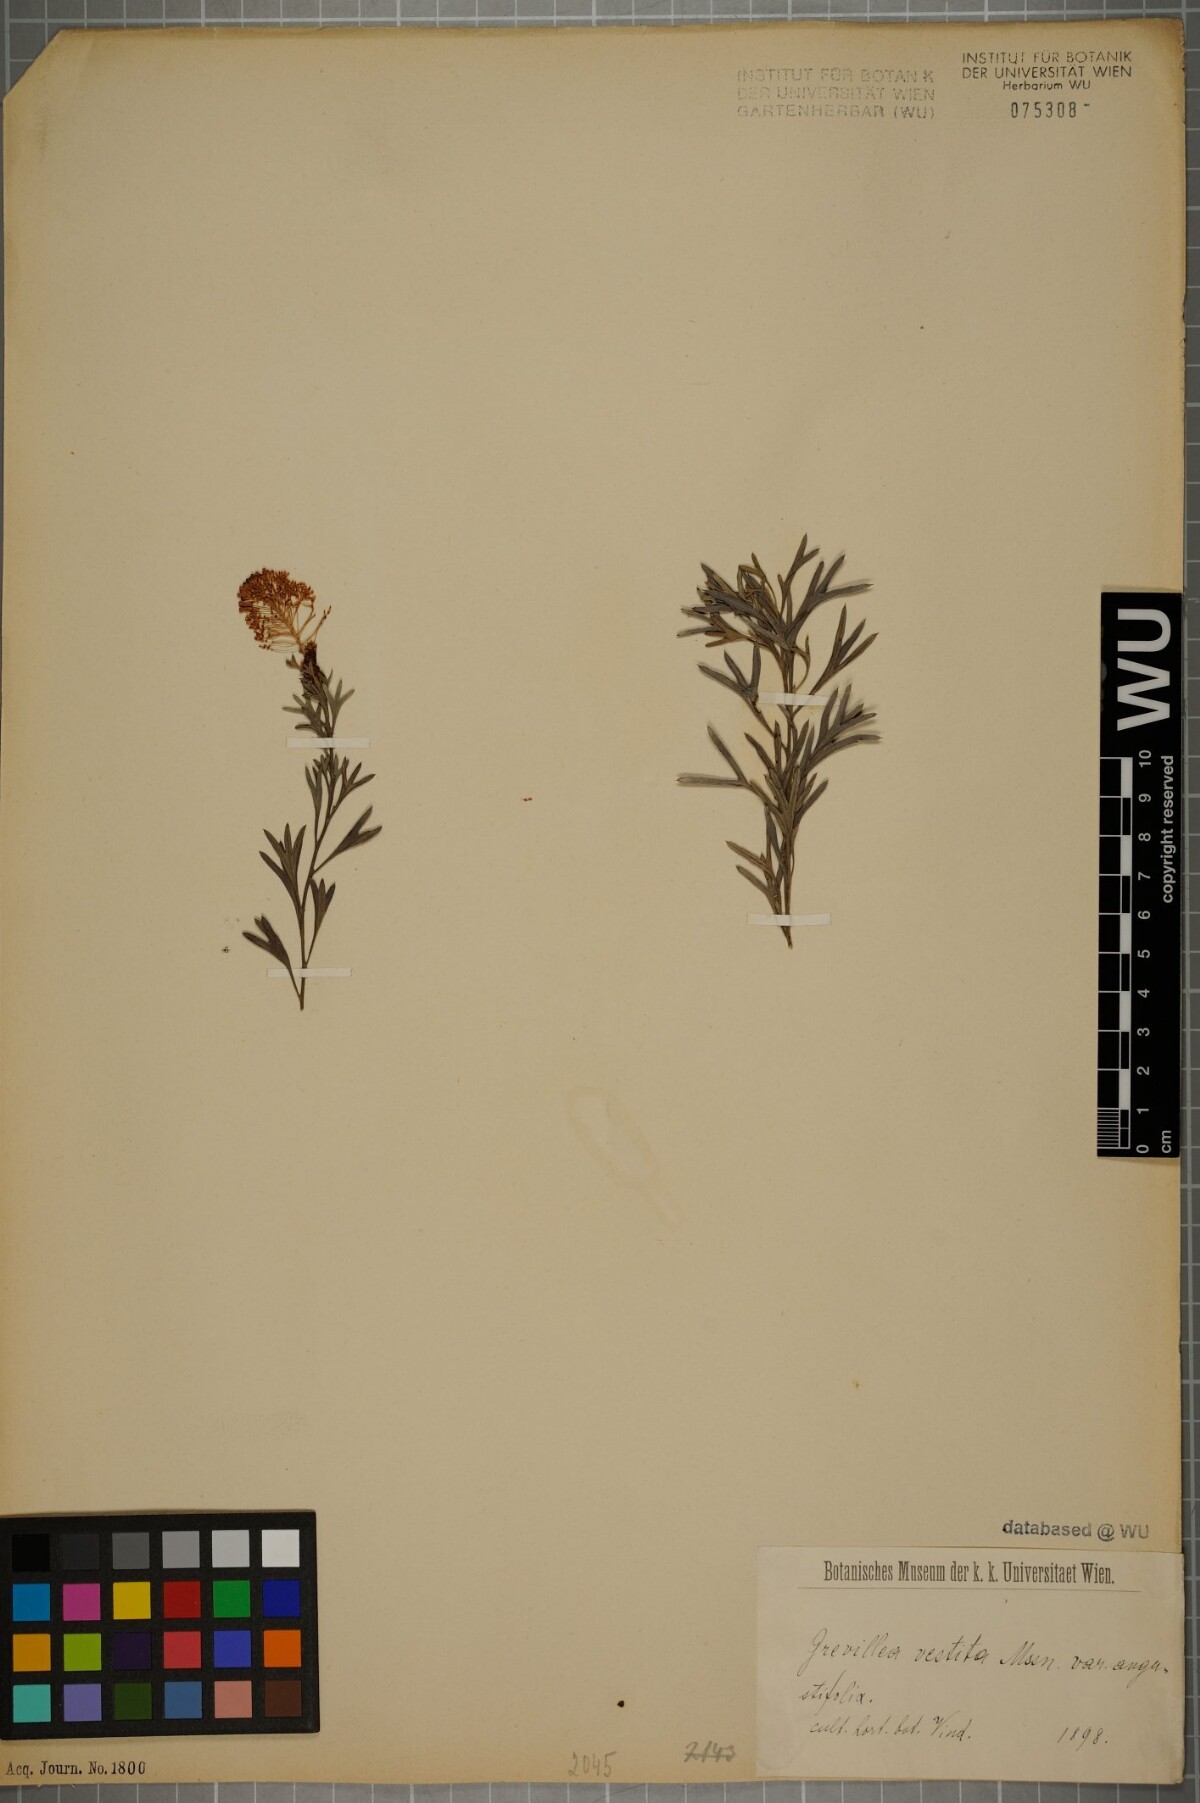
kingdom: Plantae
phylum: Tracheophyta
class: Magnoliopsida
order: Proteales
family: Proteaceae
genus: Grevillea
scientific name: Grevillea vestita
